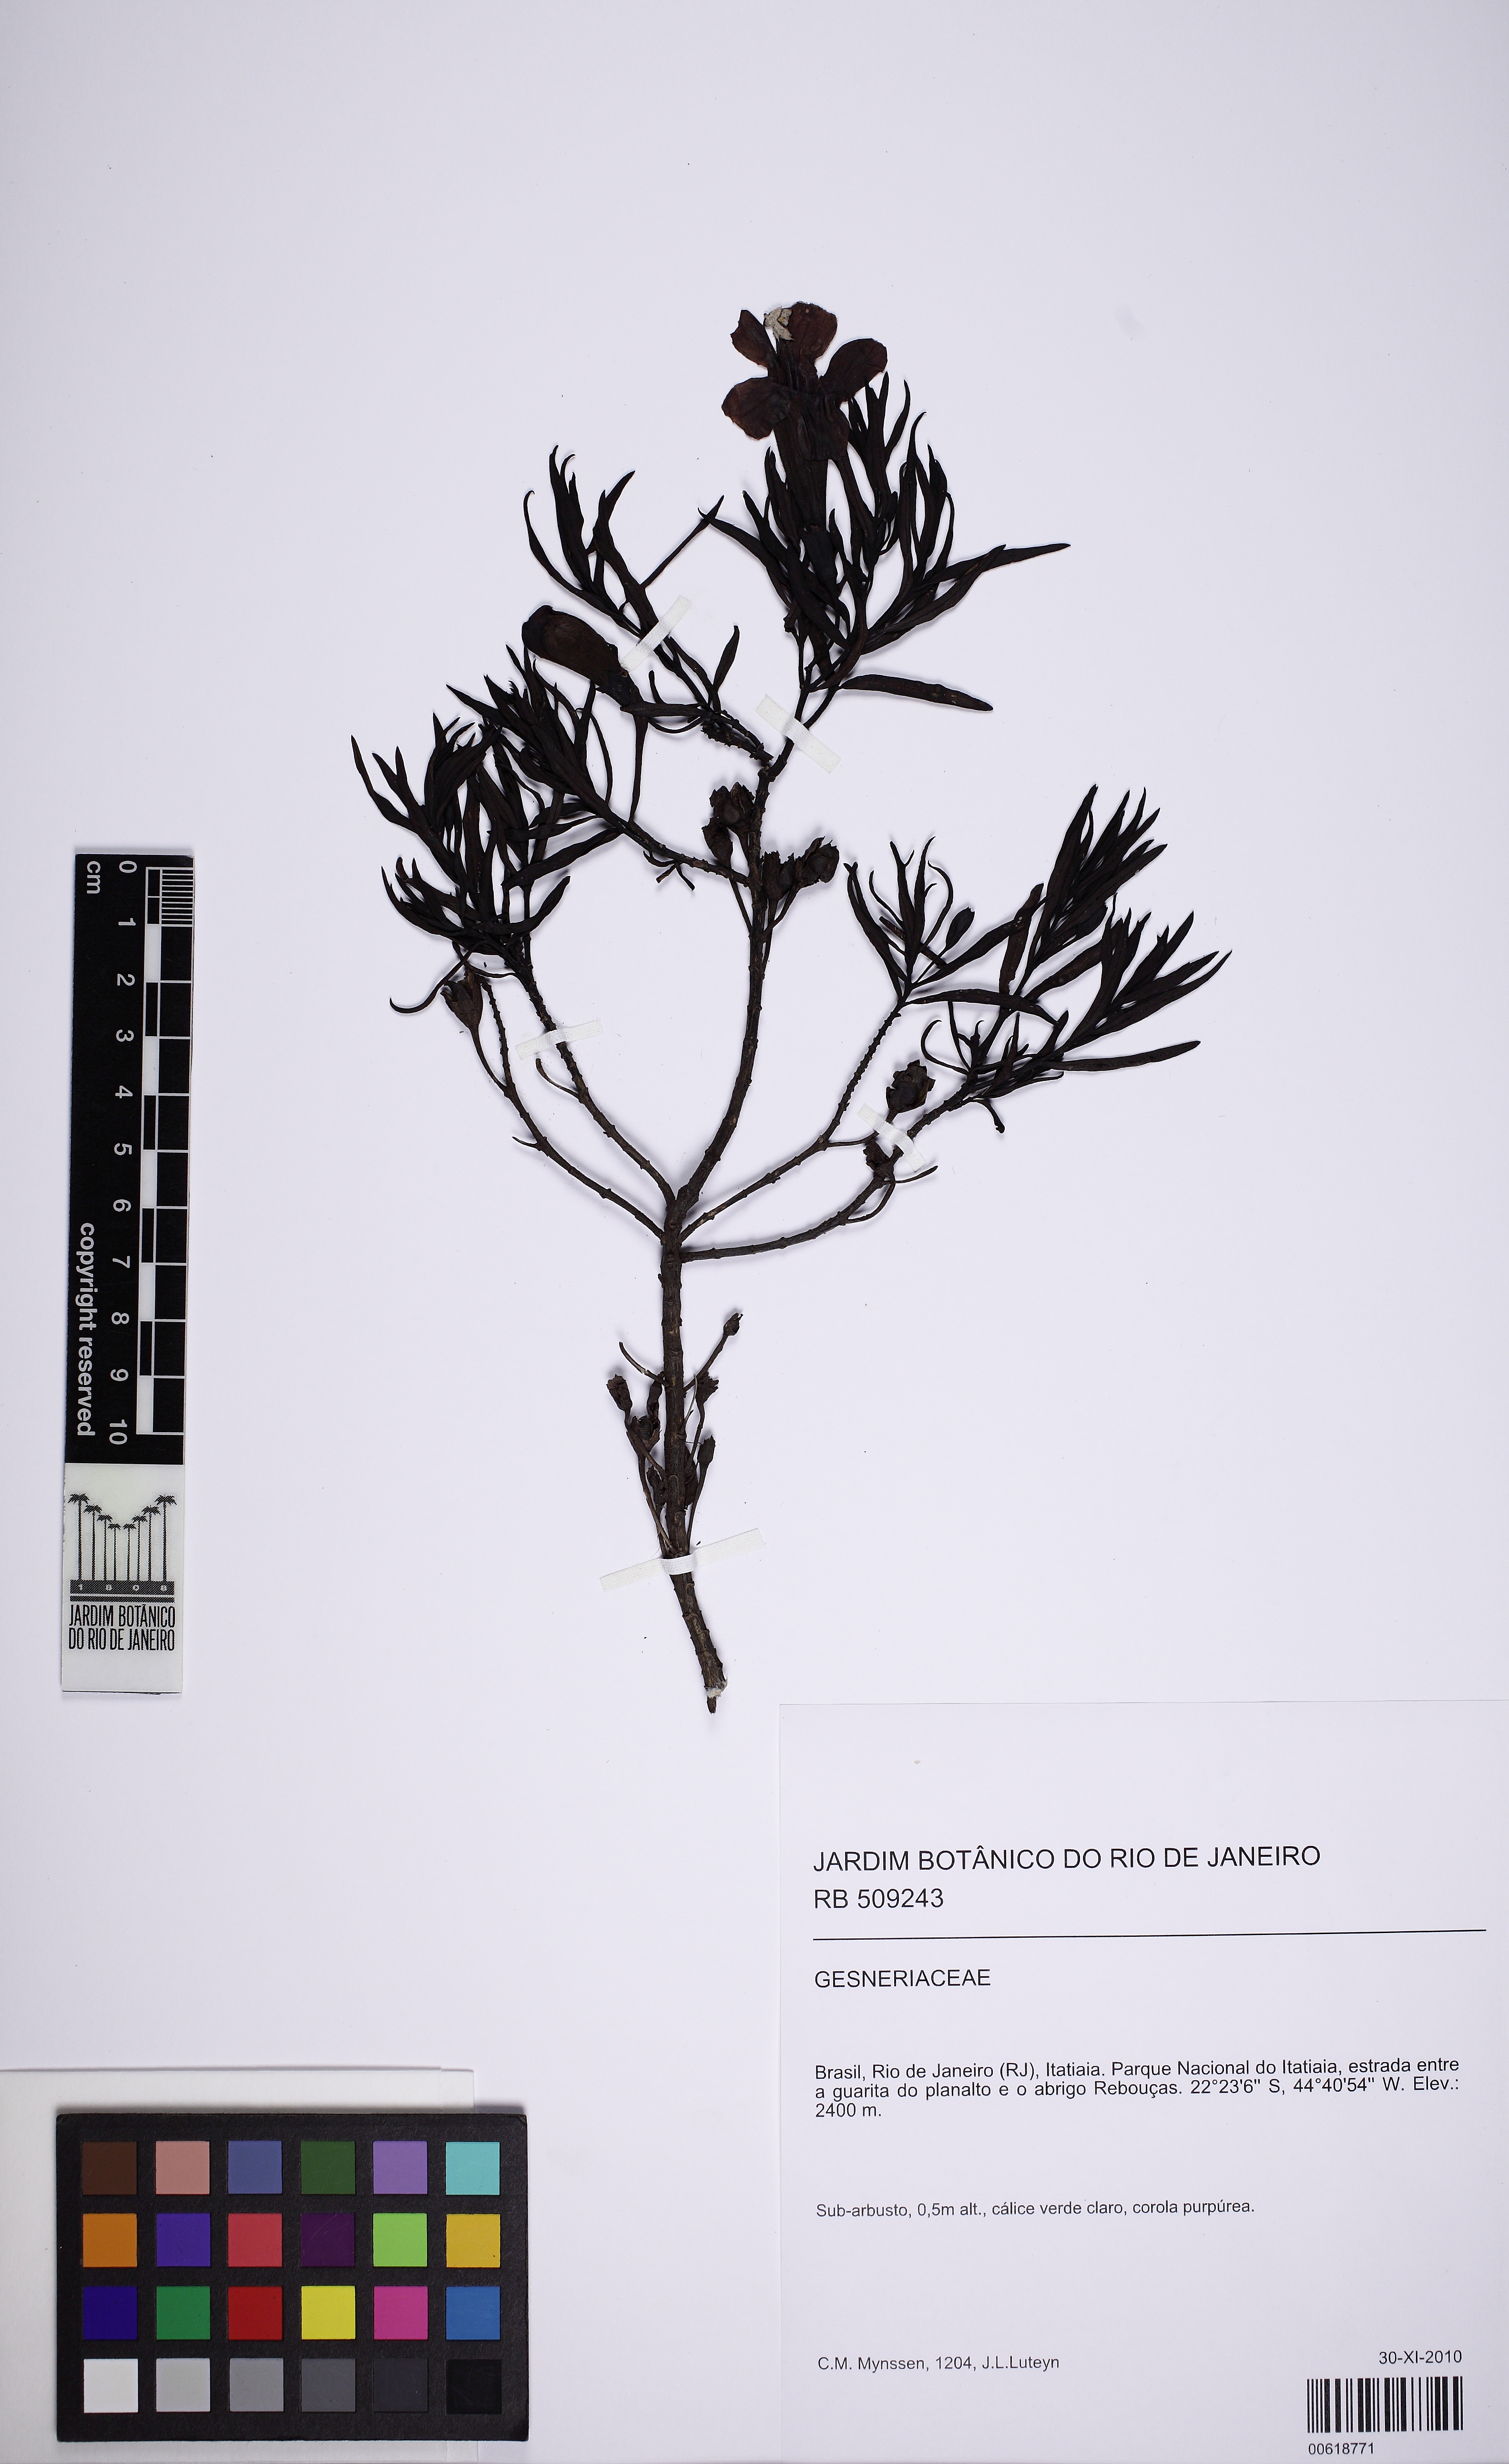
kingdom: Plantae
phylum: Tracheophyta
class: Magnoliopsida
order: Lamiales
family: Orobanchaceae
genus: Esterhazya
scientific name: Esterhazya
